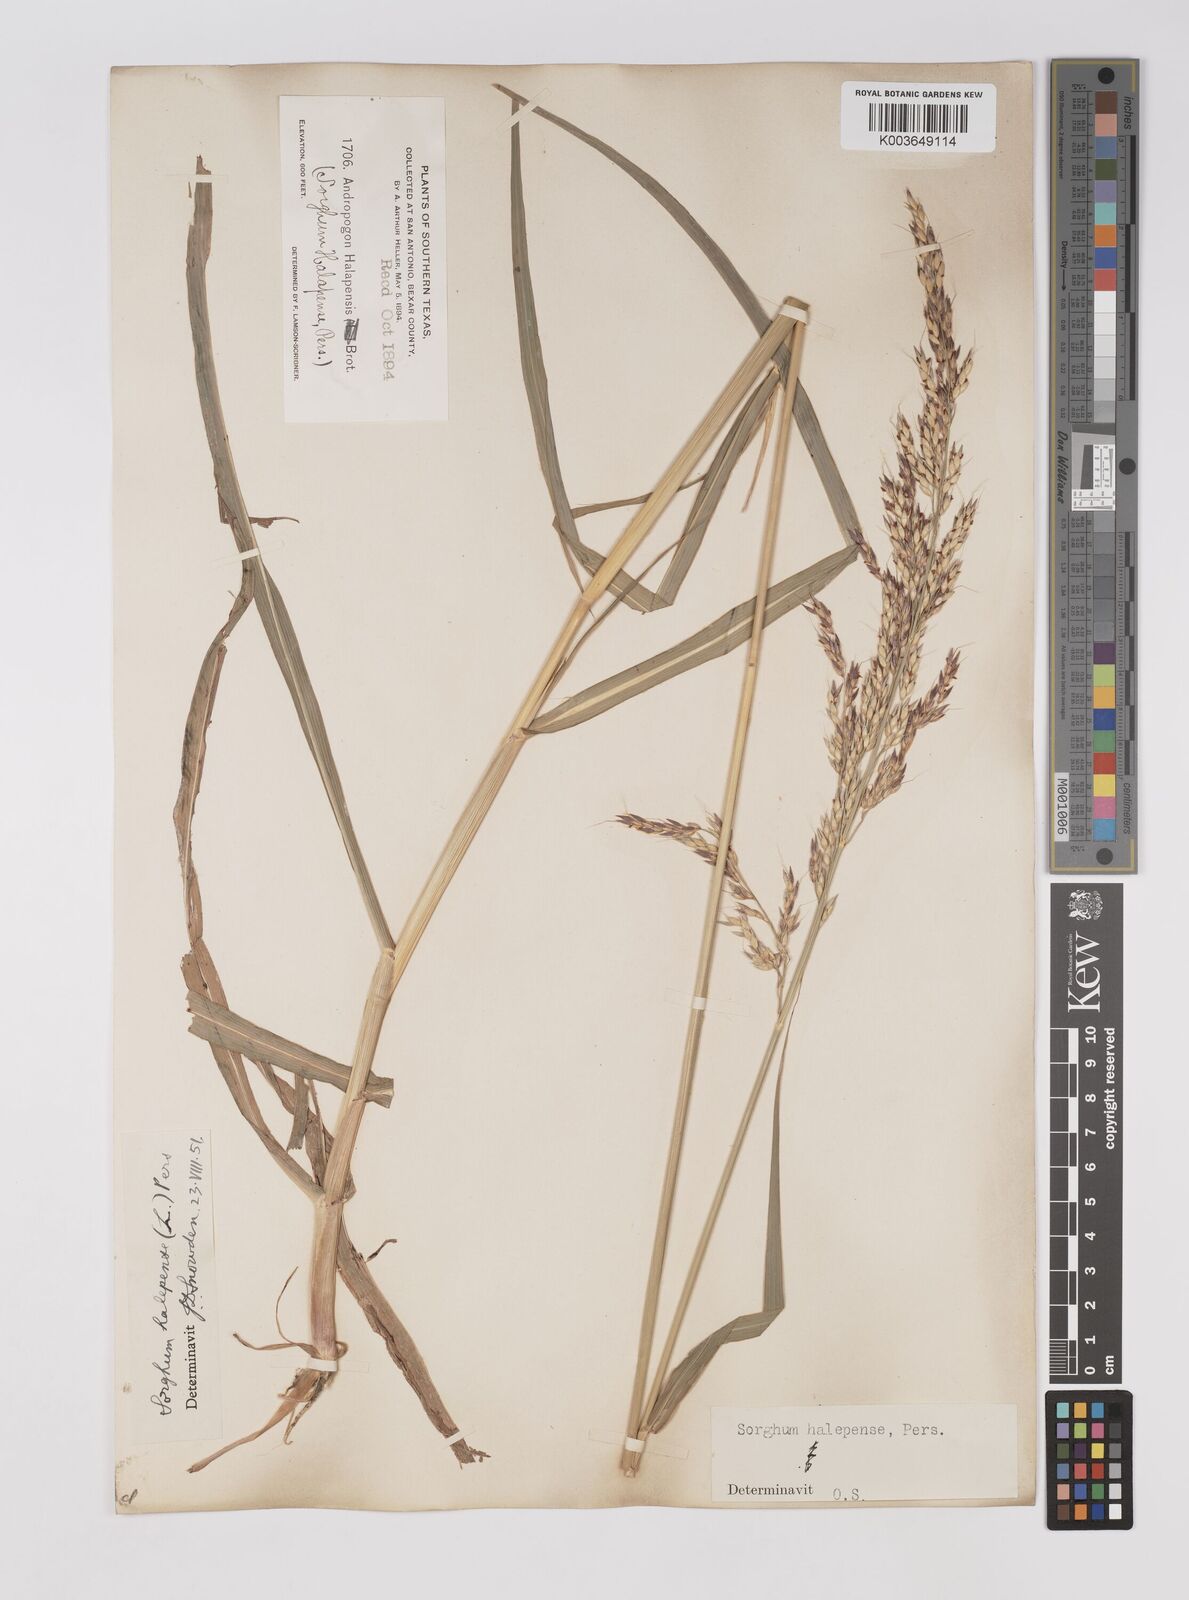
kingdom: Plantae
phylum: Tracheophyta
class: Liliopsida
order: Poales
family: Poaceae
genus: Sorghum
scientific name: Sorghum halepense
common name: Johnson-grass
